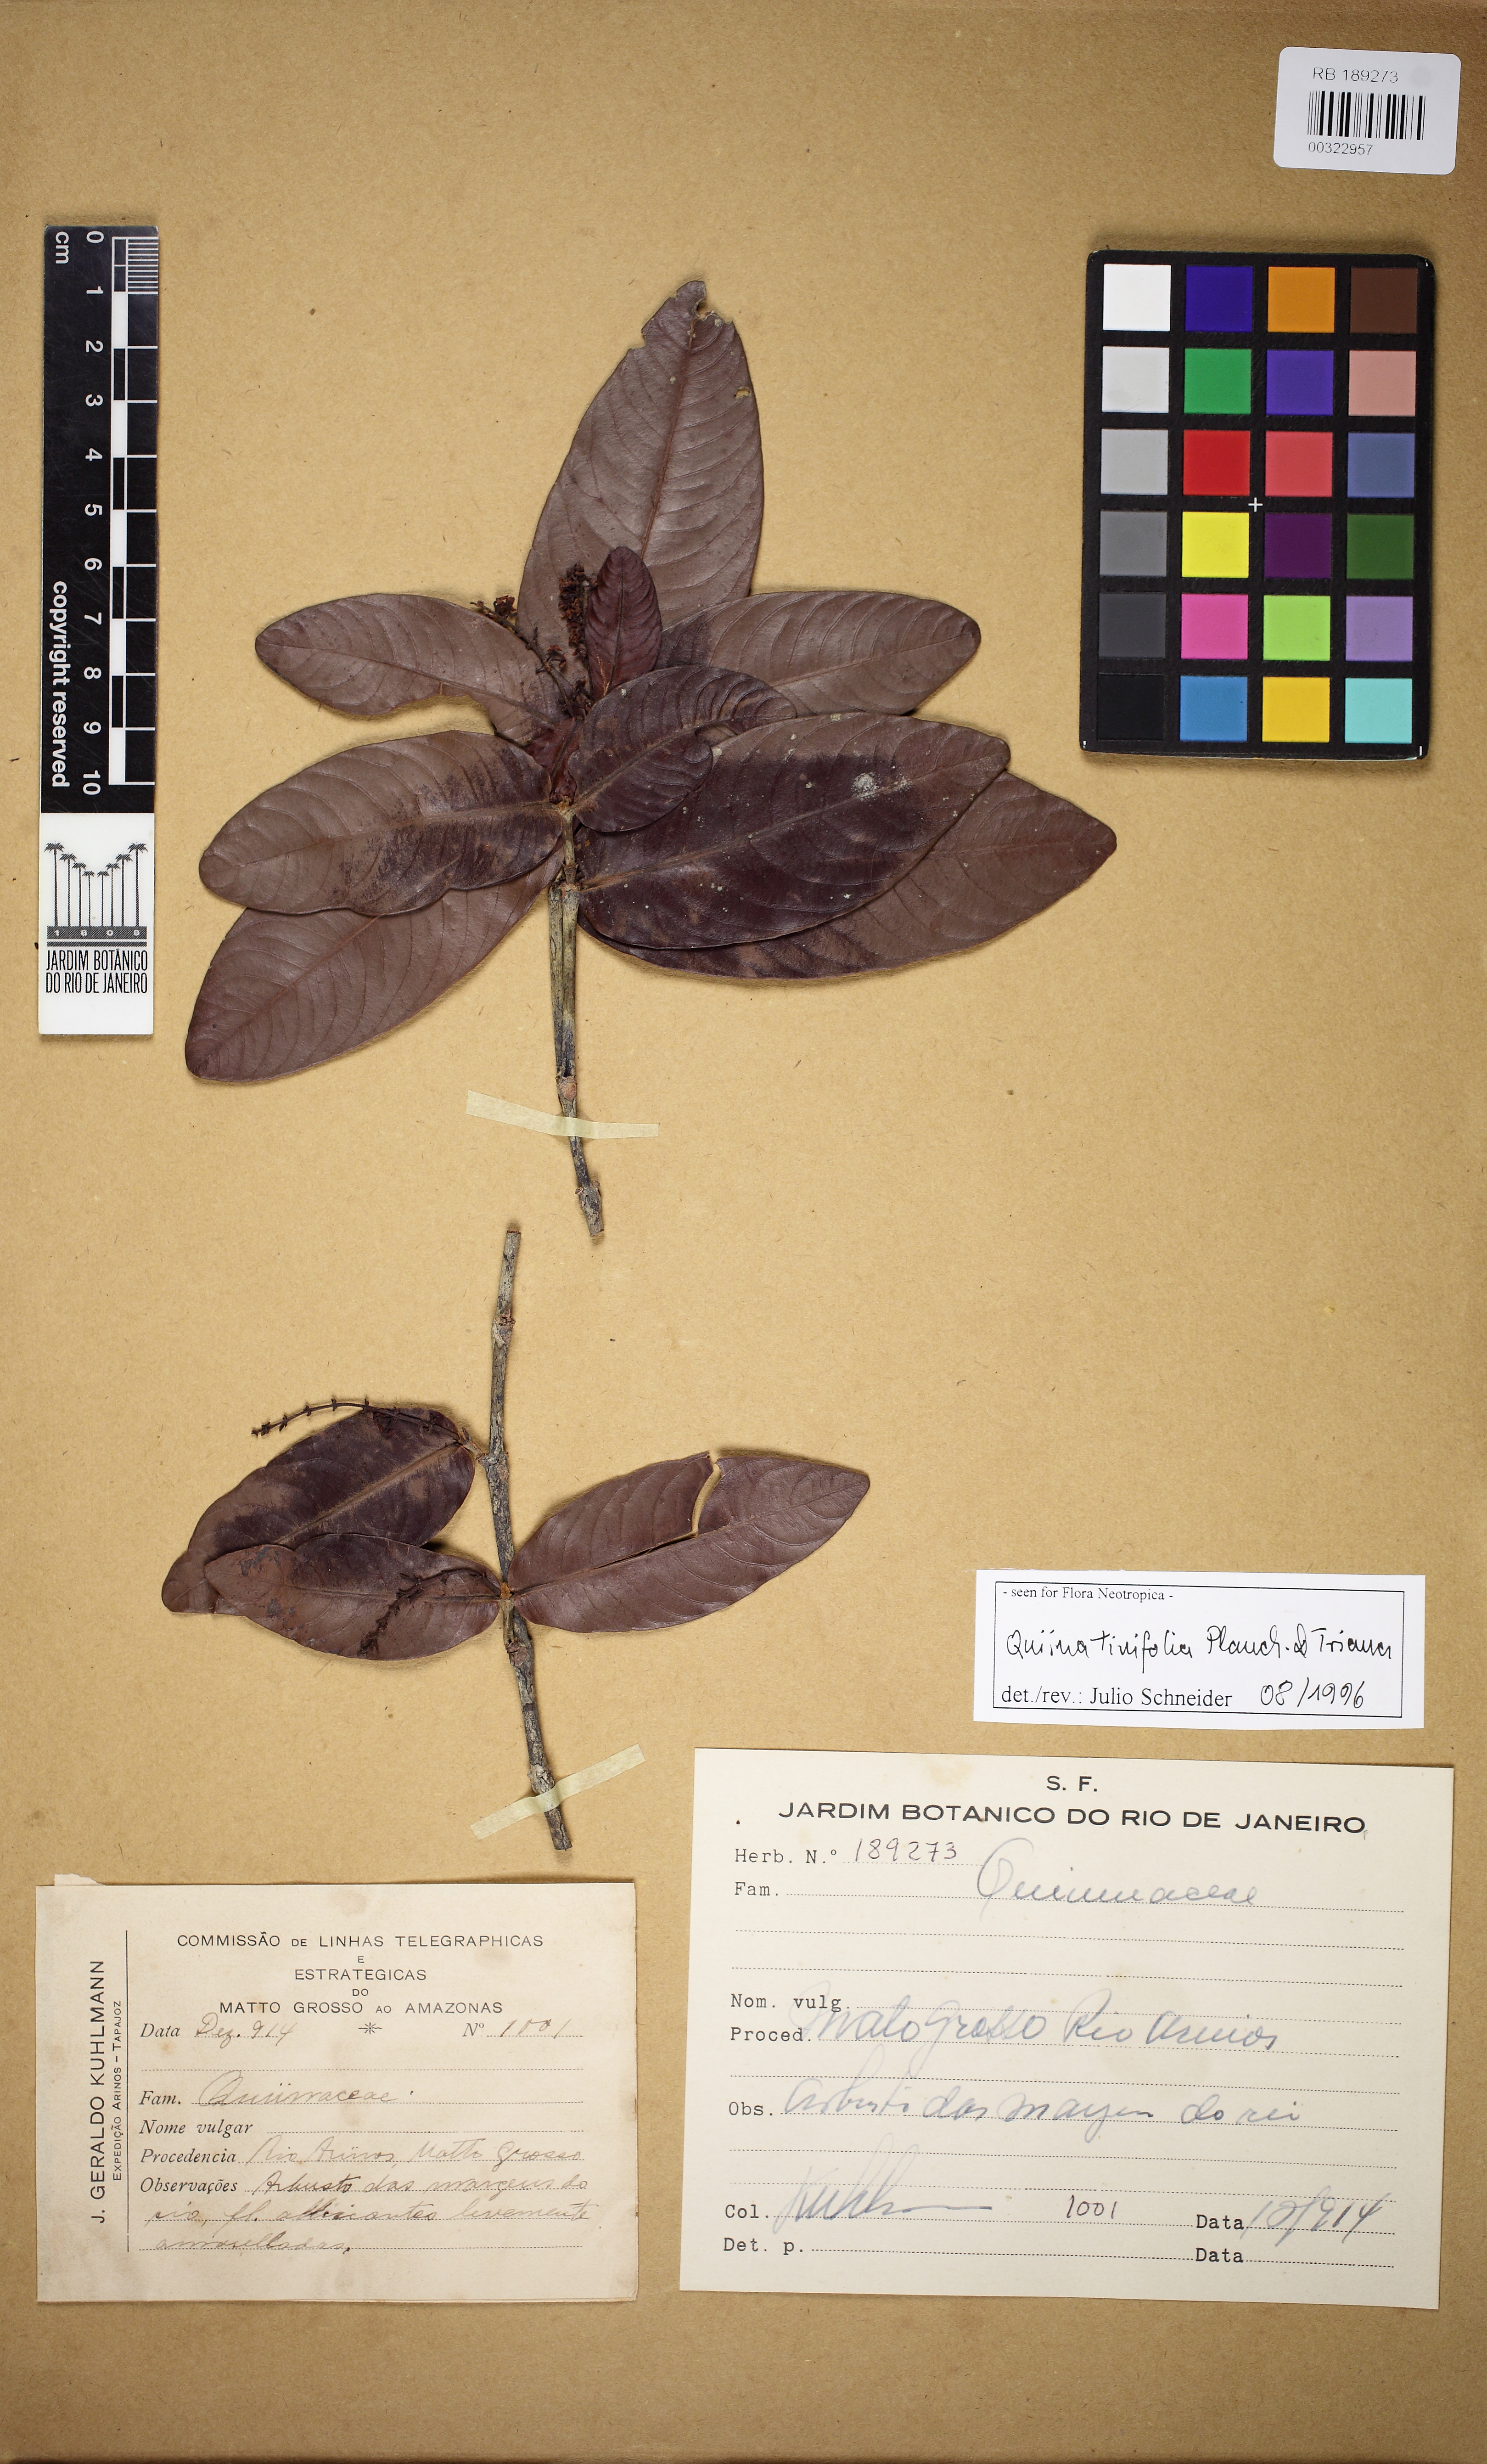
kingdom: Plantae
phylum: Tracheophyta
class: Magnoliopsida
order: Malpighiales
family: Quiinaceae
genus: Quiina
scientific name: Quiina tinifolia
